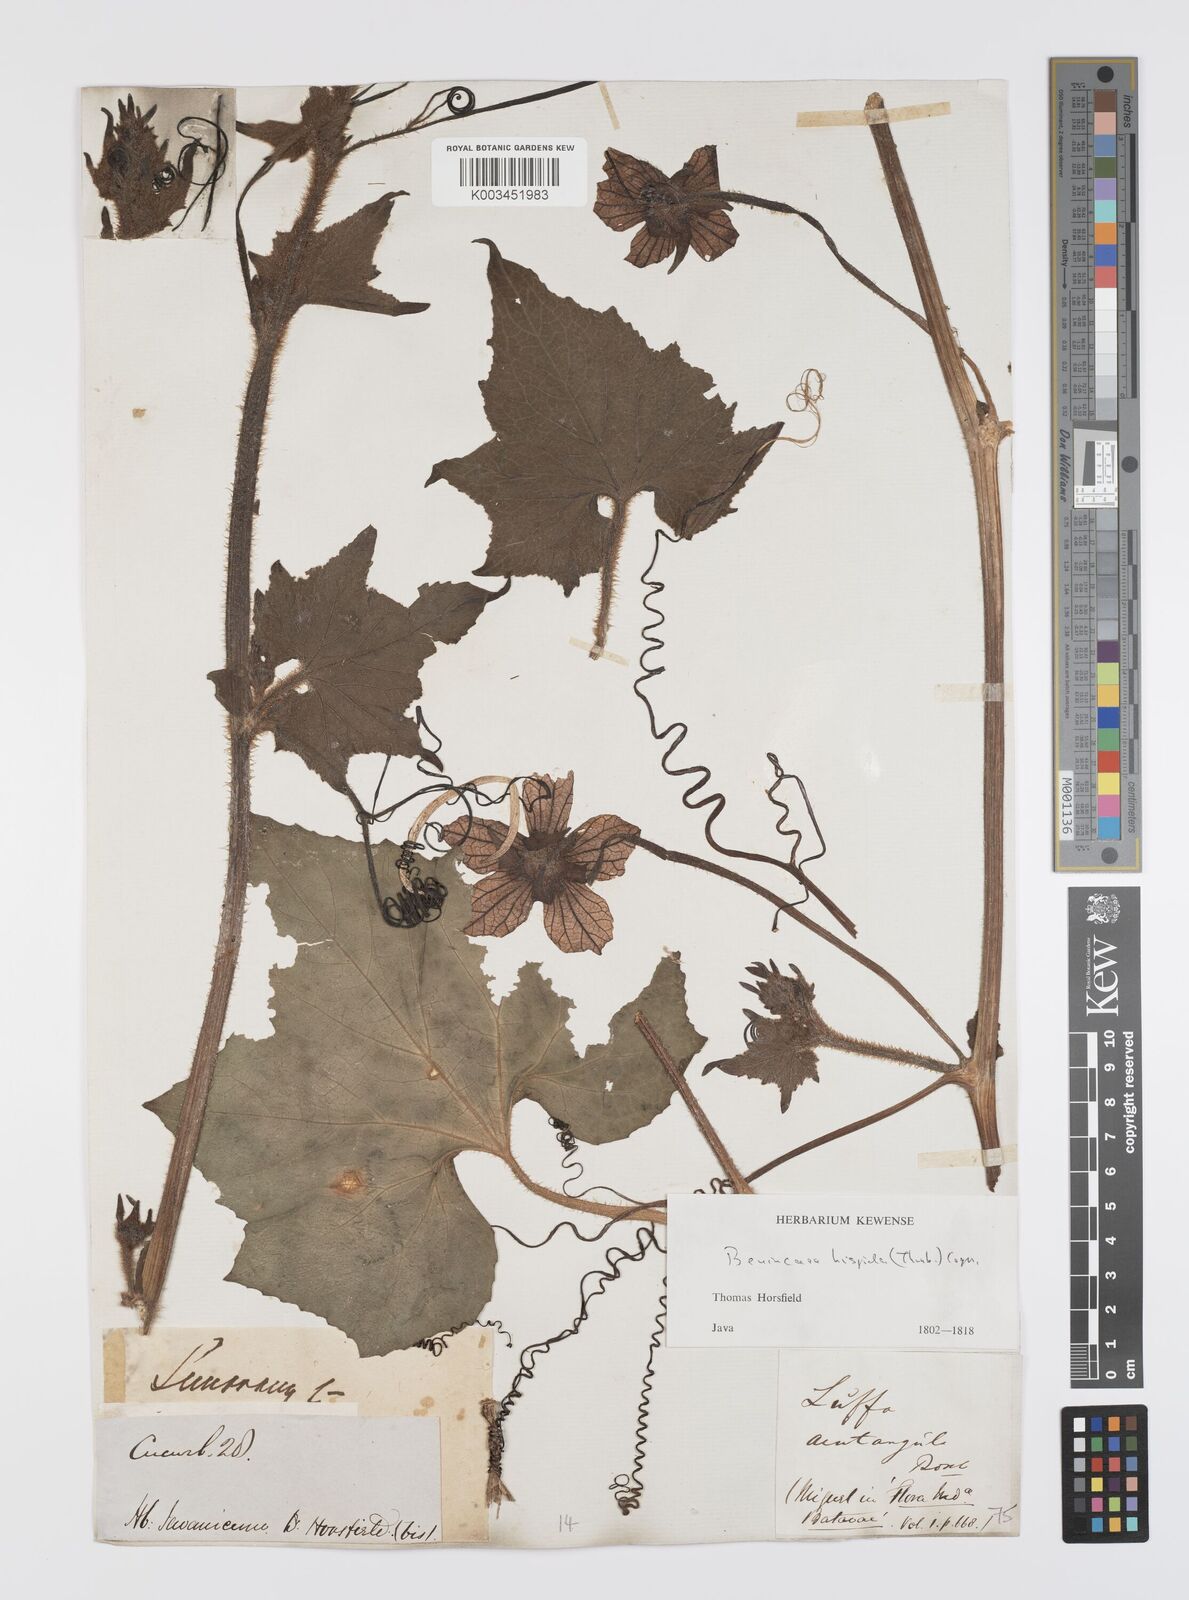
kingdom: Plantae
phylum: Tracheophyta
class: Magnoliopsida
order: Cucurbitales
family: Cucurbitaceae
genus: Benincasa
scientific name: Benincasa hispida
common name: Chinese-watermelon
